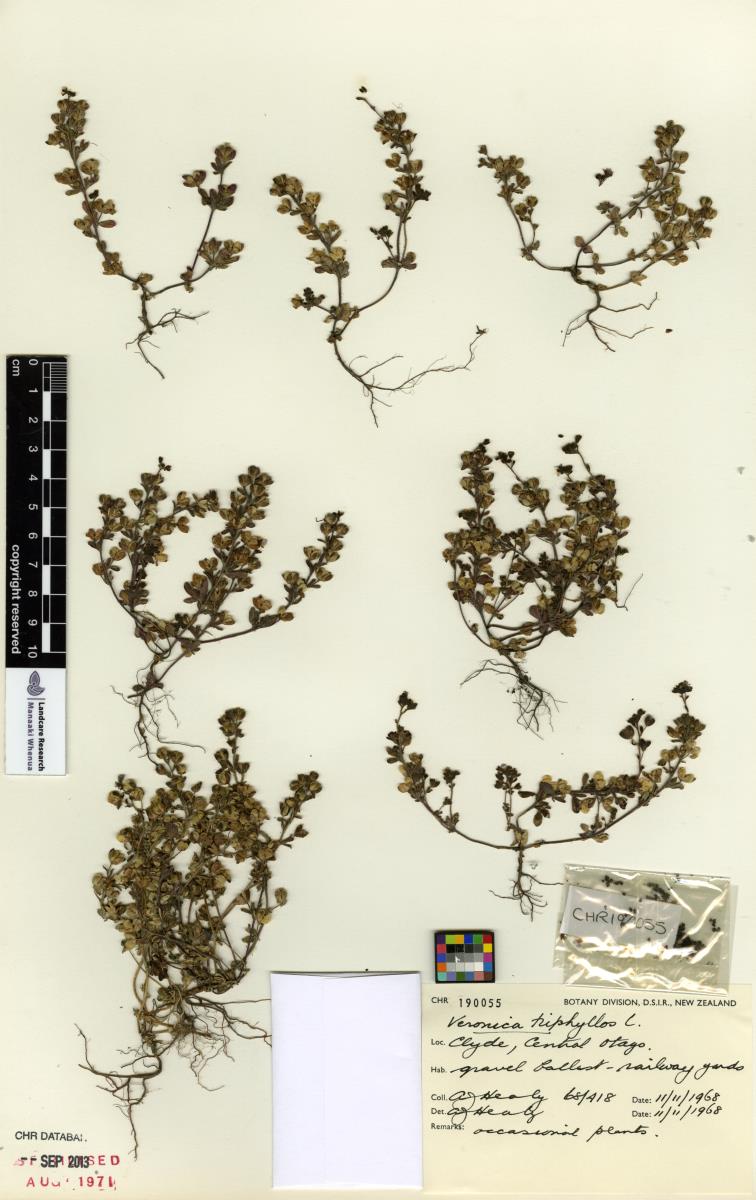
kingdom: Plantae
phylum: Tracheophyta
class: Magnoliopsida
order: Lamiales
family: Plantaginaceae
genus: Veronica
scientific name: Veronica triphyllos
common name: Fingered speedwell
